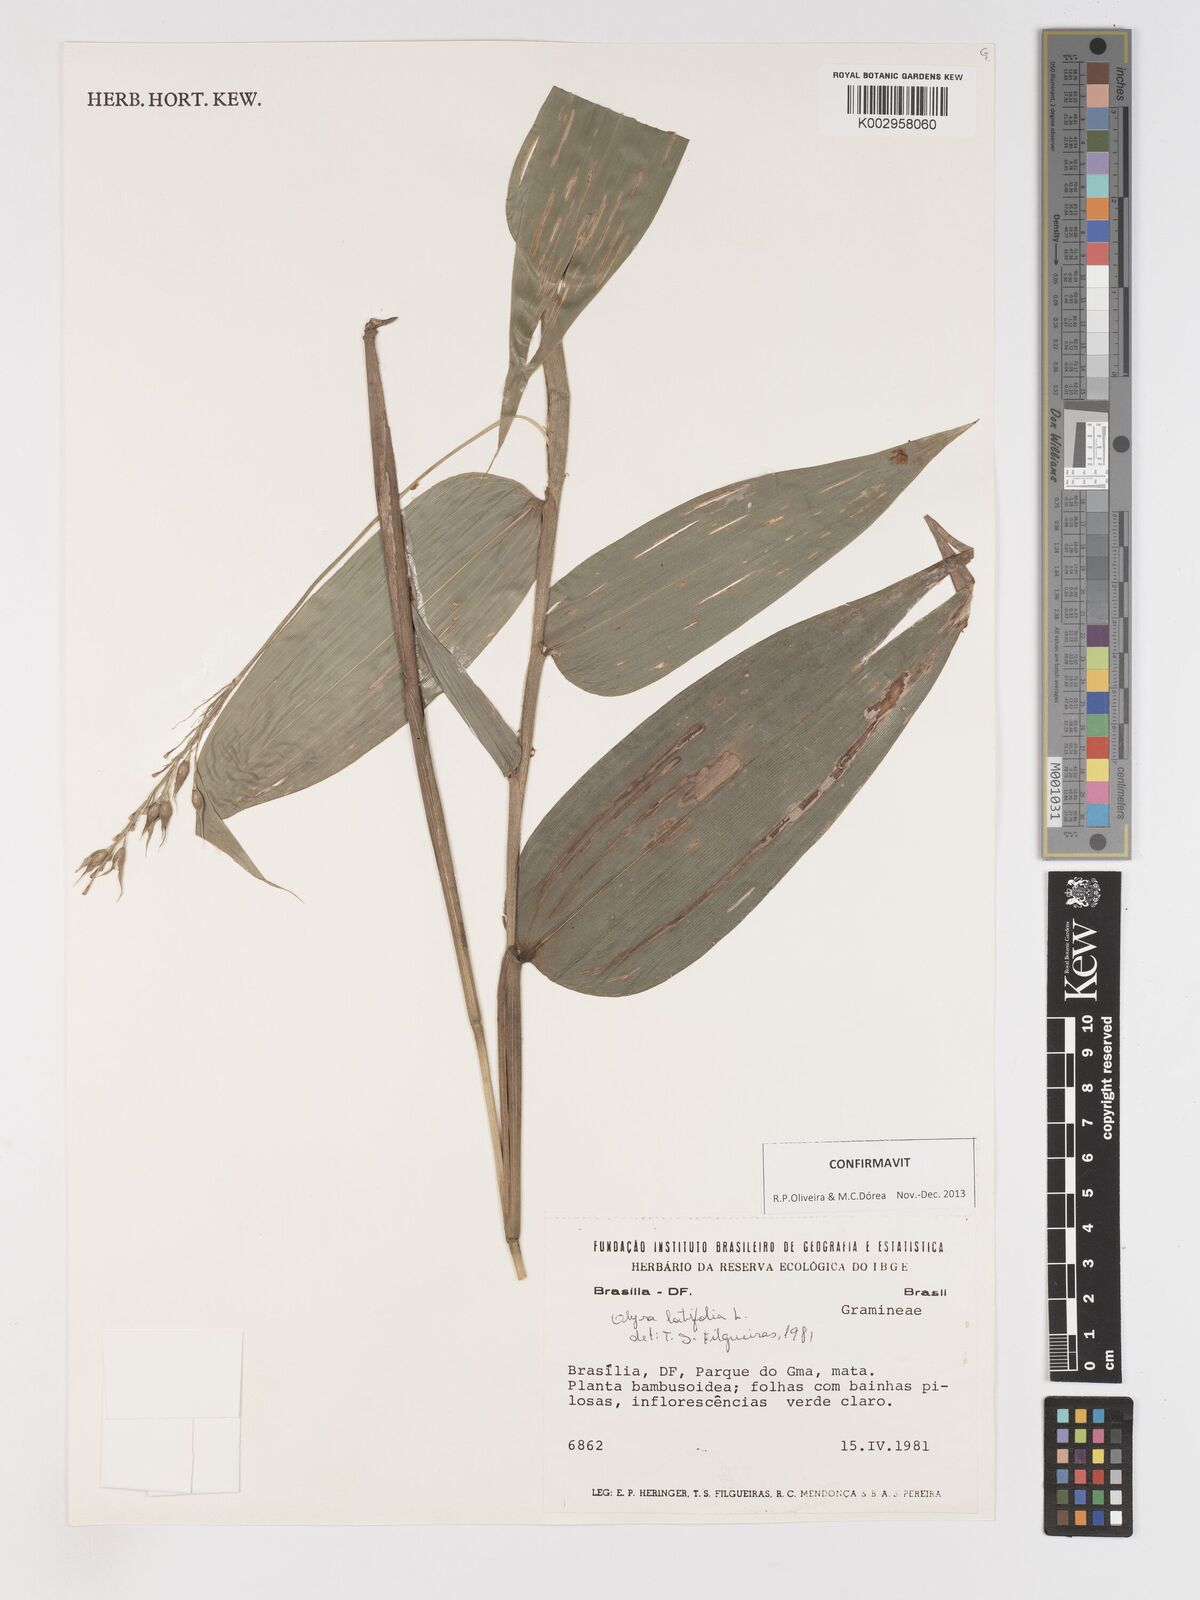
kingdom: Plantae
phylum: Tracheophyta
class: Liliopsida
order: Poales
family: Poaceae
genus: Olyra
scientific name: Olyra latifolia
